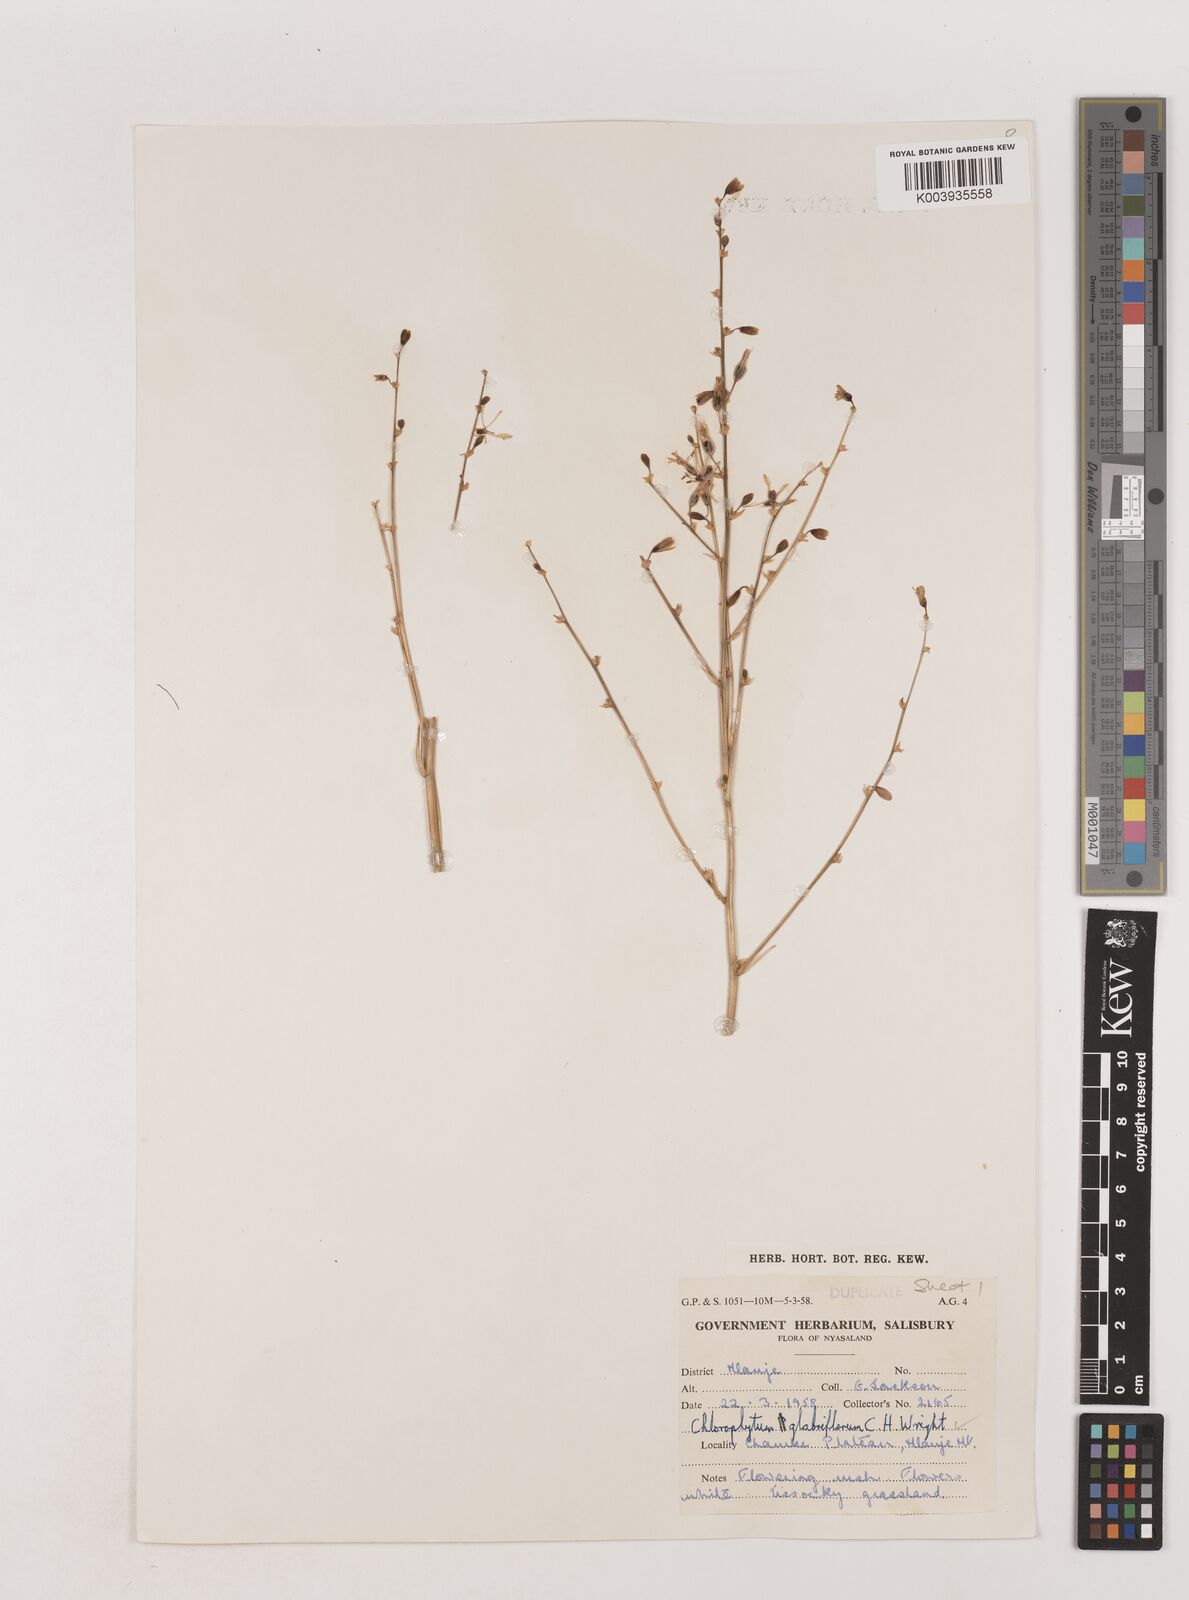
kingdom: Plantae
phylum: Tracheophyta
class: Liliopsida
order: Asparagales
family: Asparagaceae
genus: Chlorophytum
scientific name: Chlorophytum nyasae
